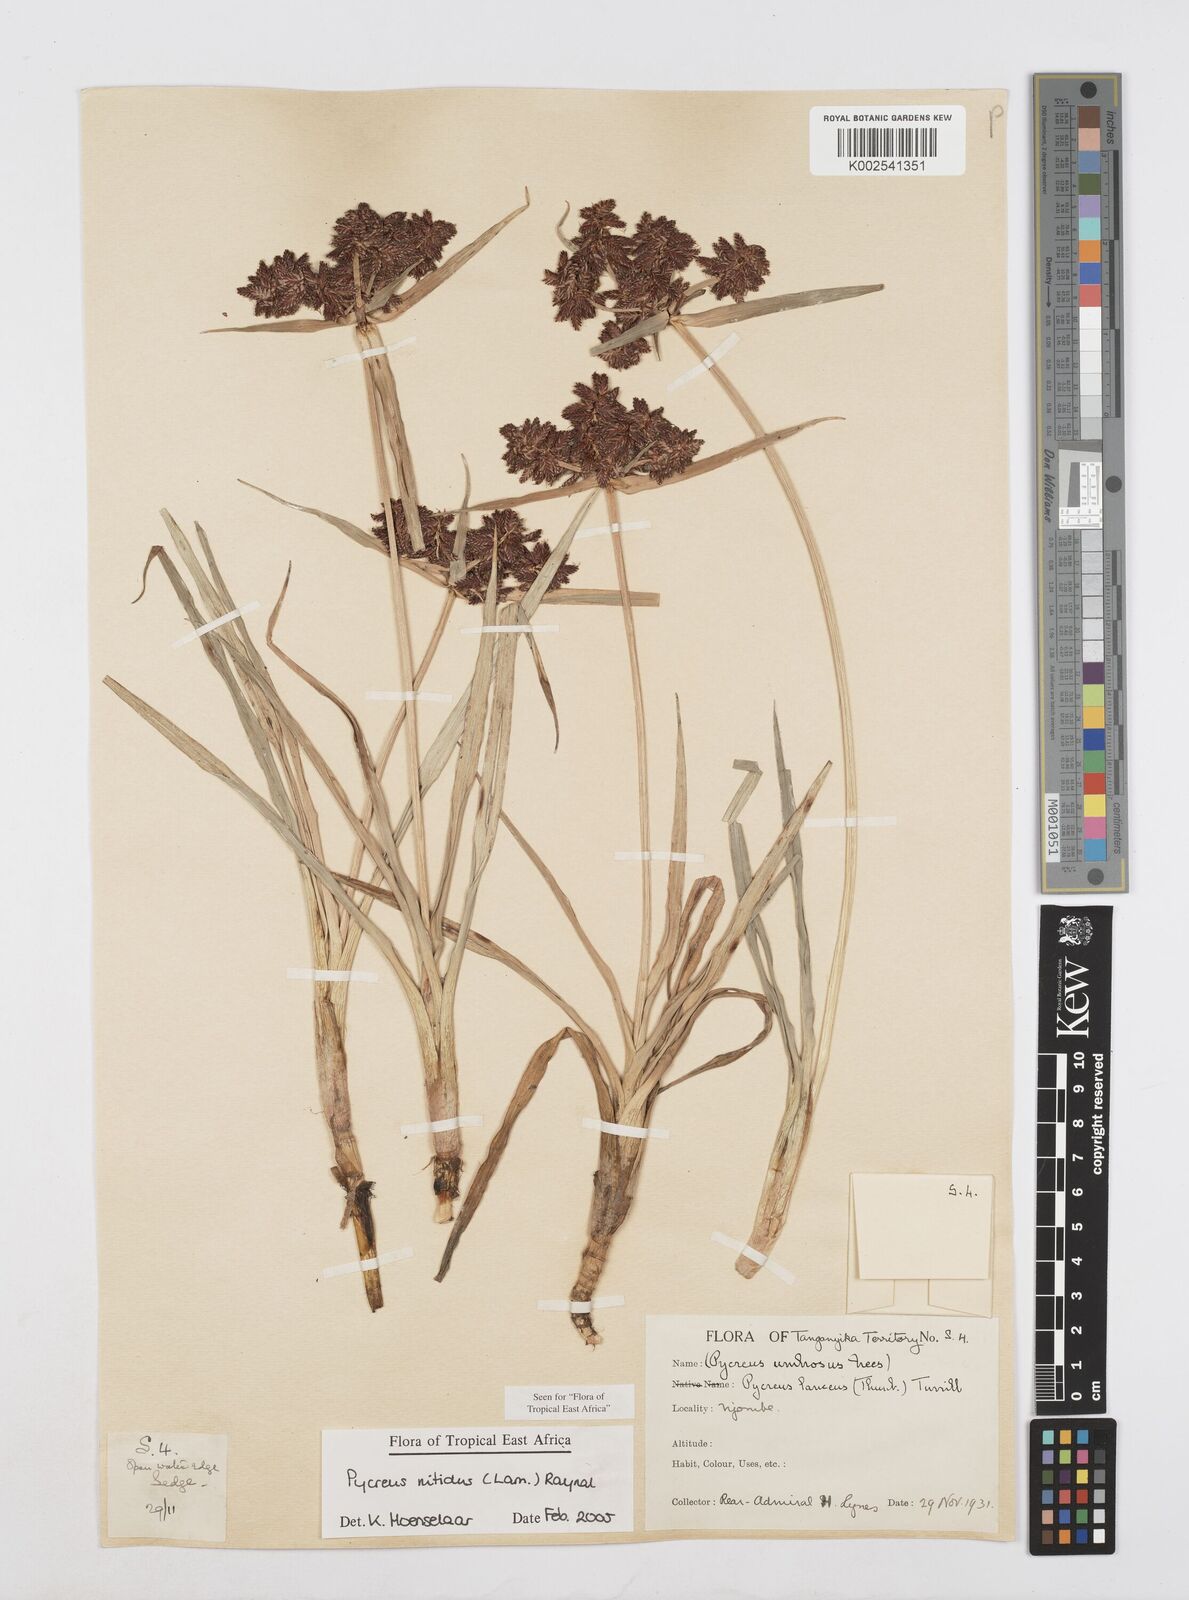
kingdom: Plantae
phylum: Tracheophyta
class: Liliopsida
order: Poales
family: Cyperaceae
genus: Cyperus
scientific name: Cyperus nitidus
